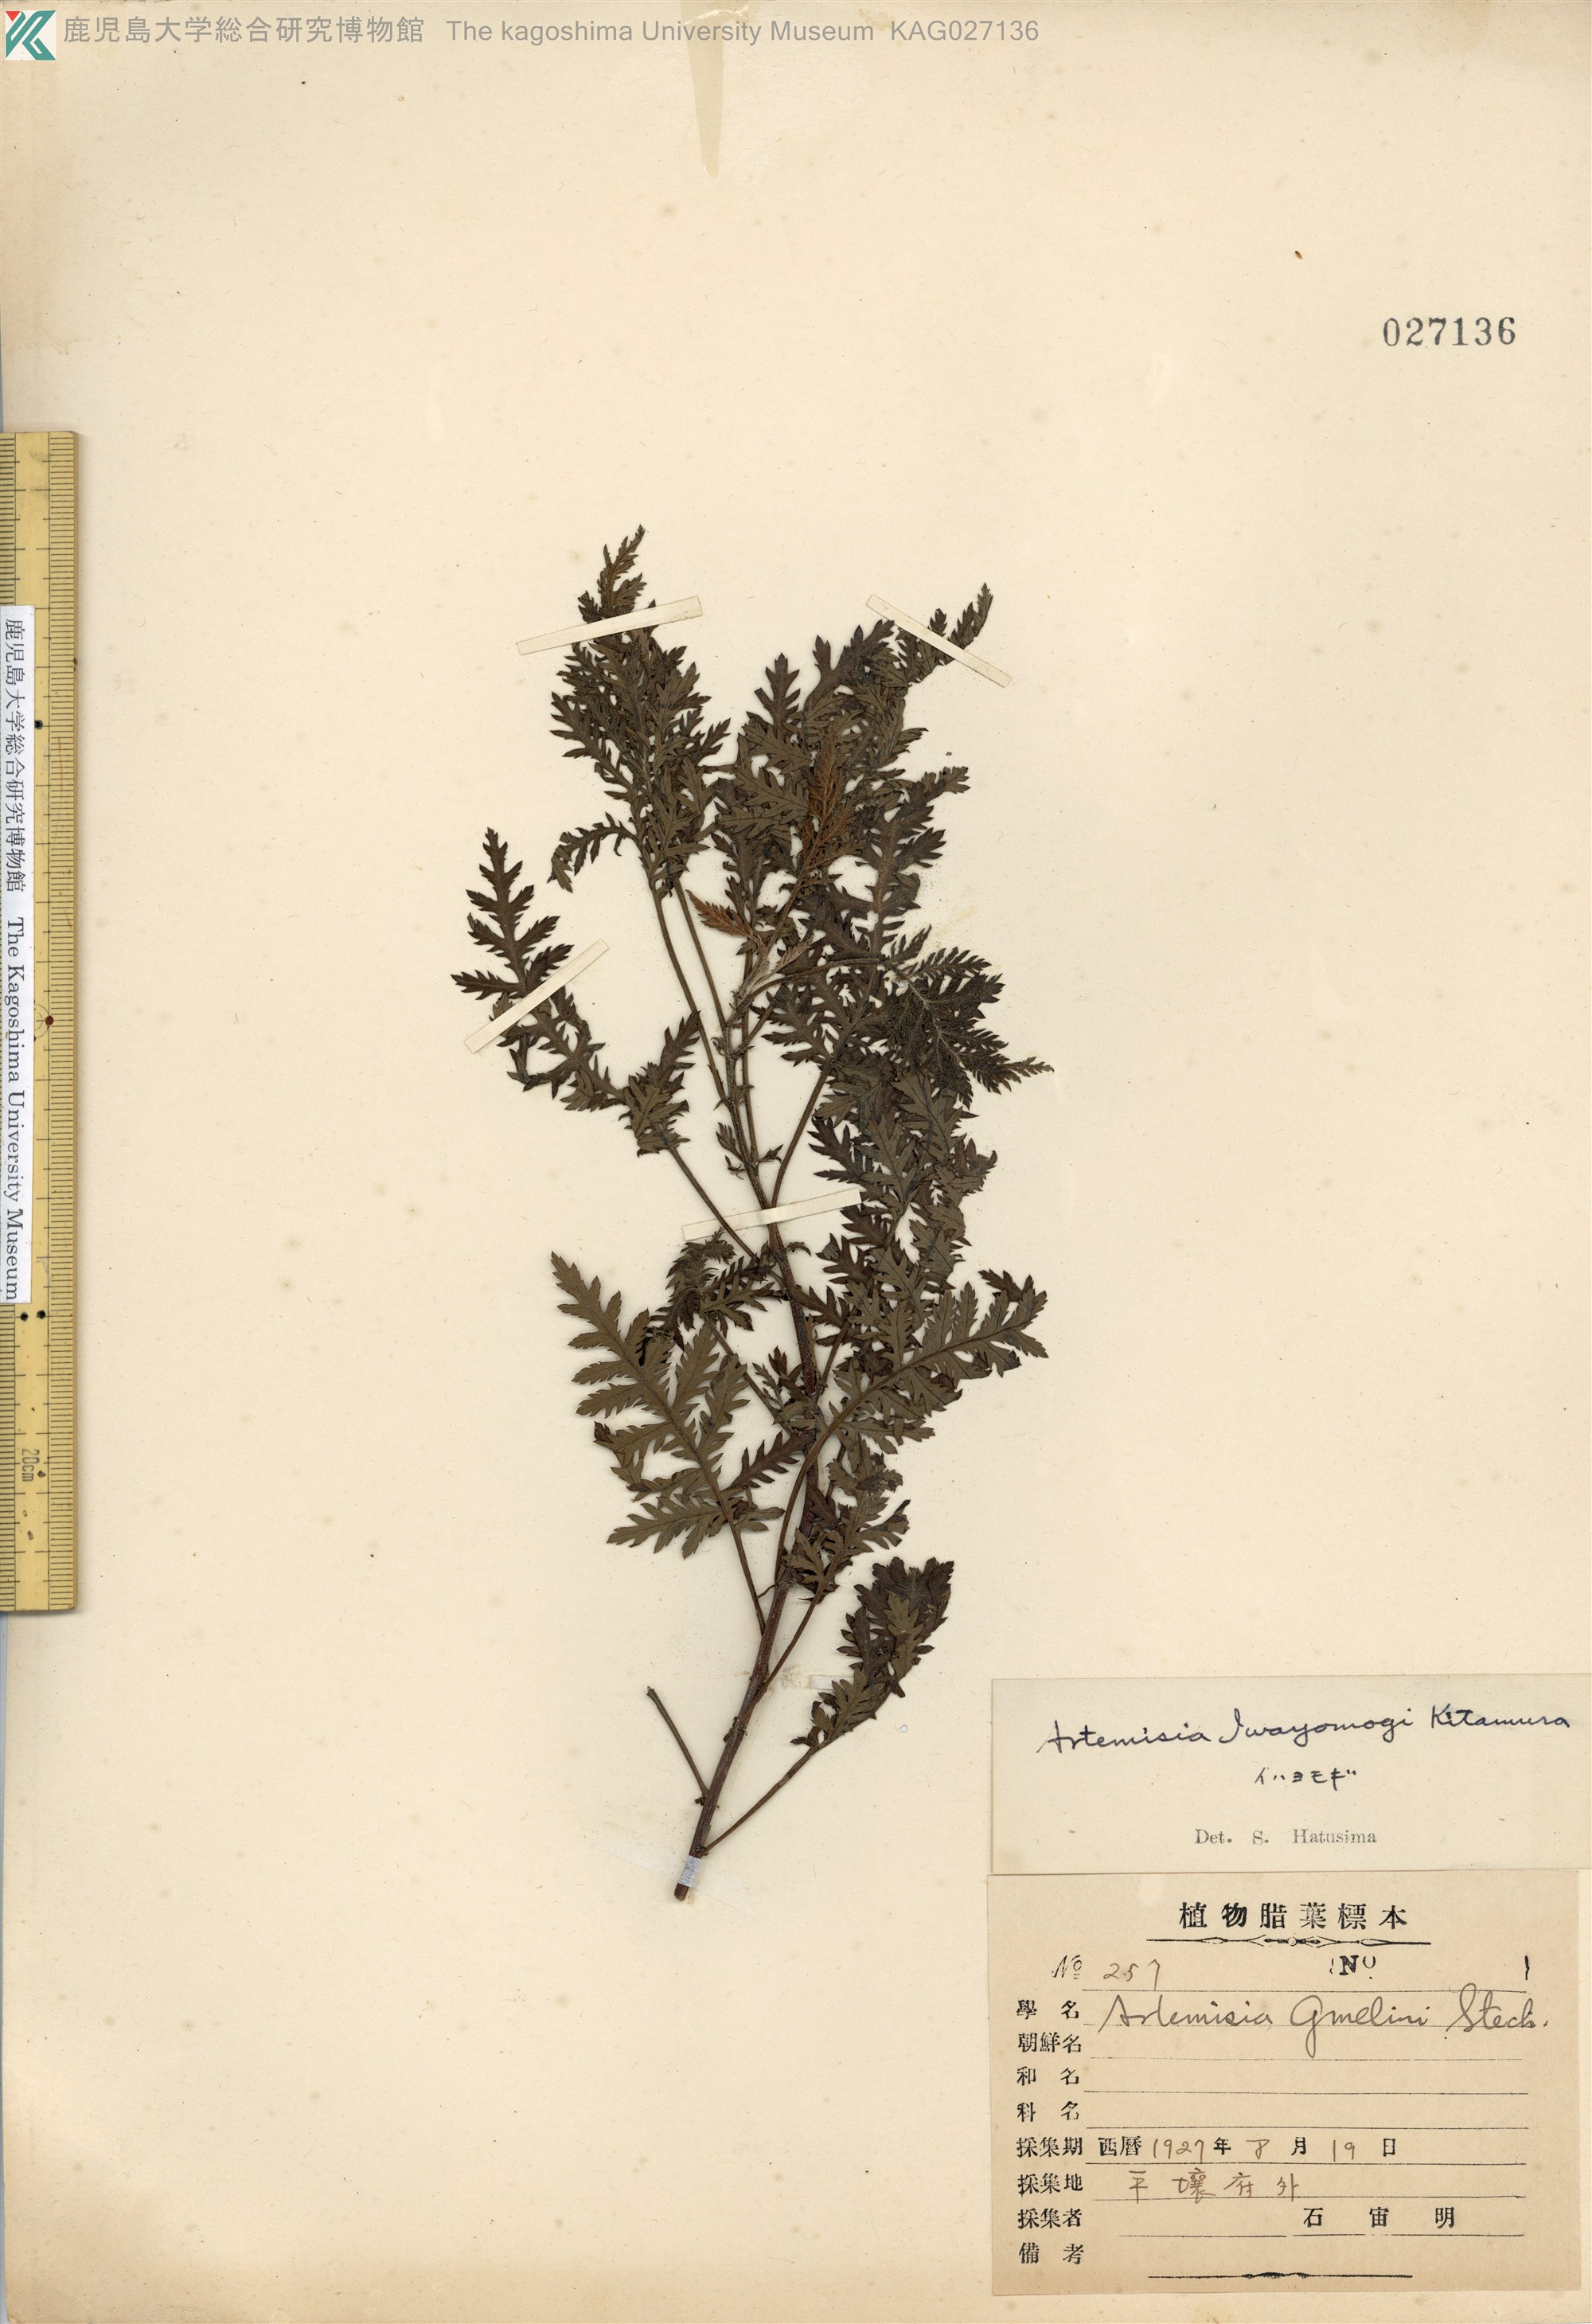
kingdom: Plantae
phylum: Tracheophyta
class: Magnoliopsida
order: Asterales
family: Asteraceae
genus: Artemisia
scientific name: Artemisia sacrorum
